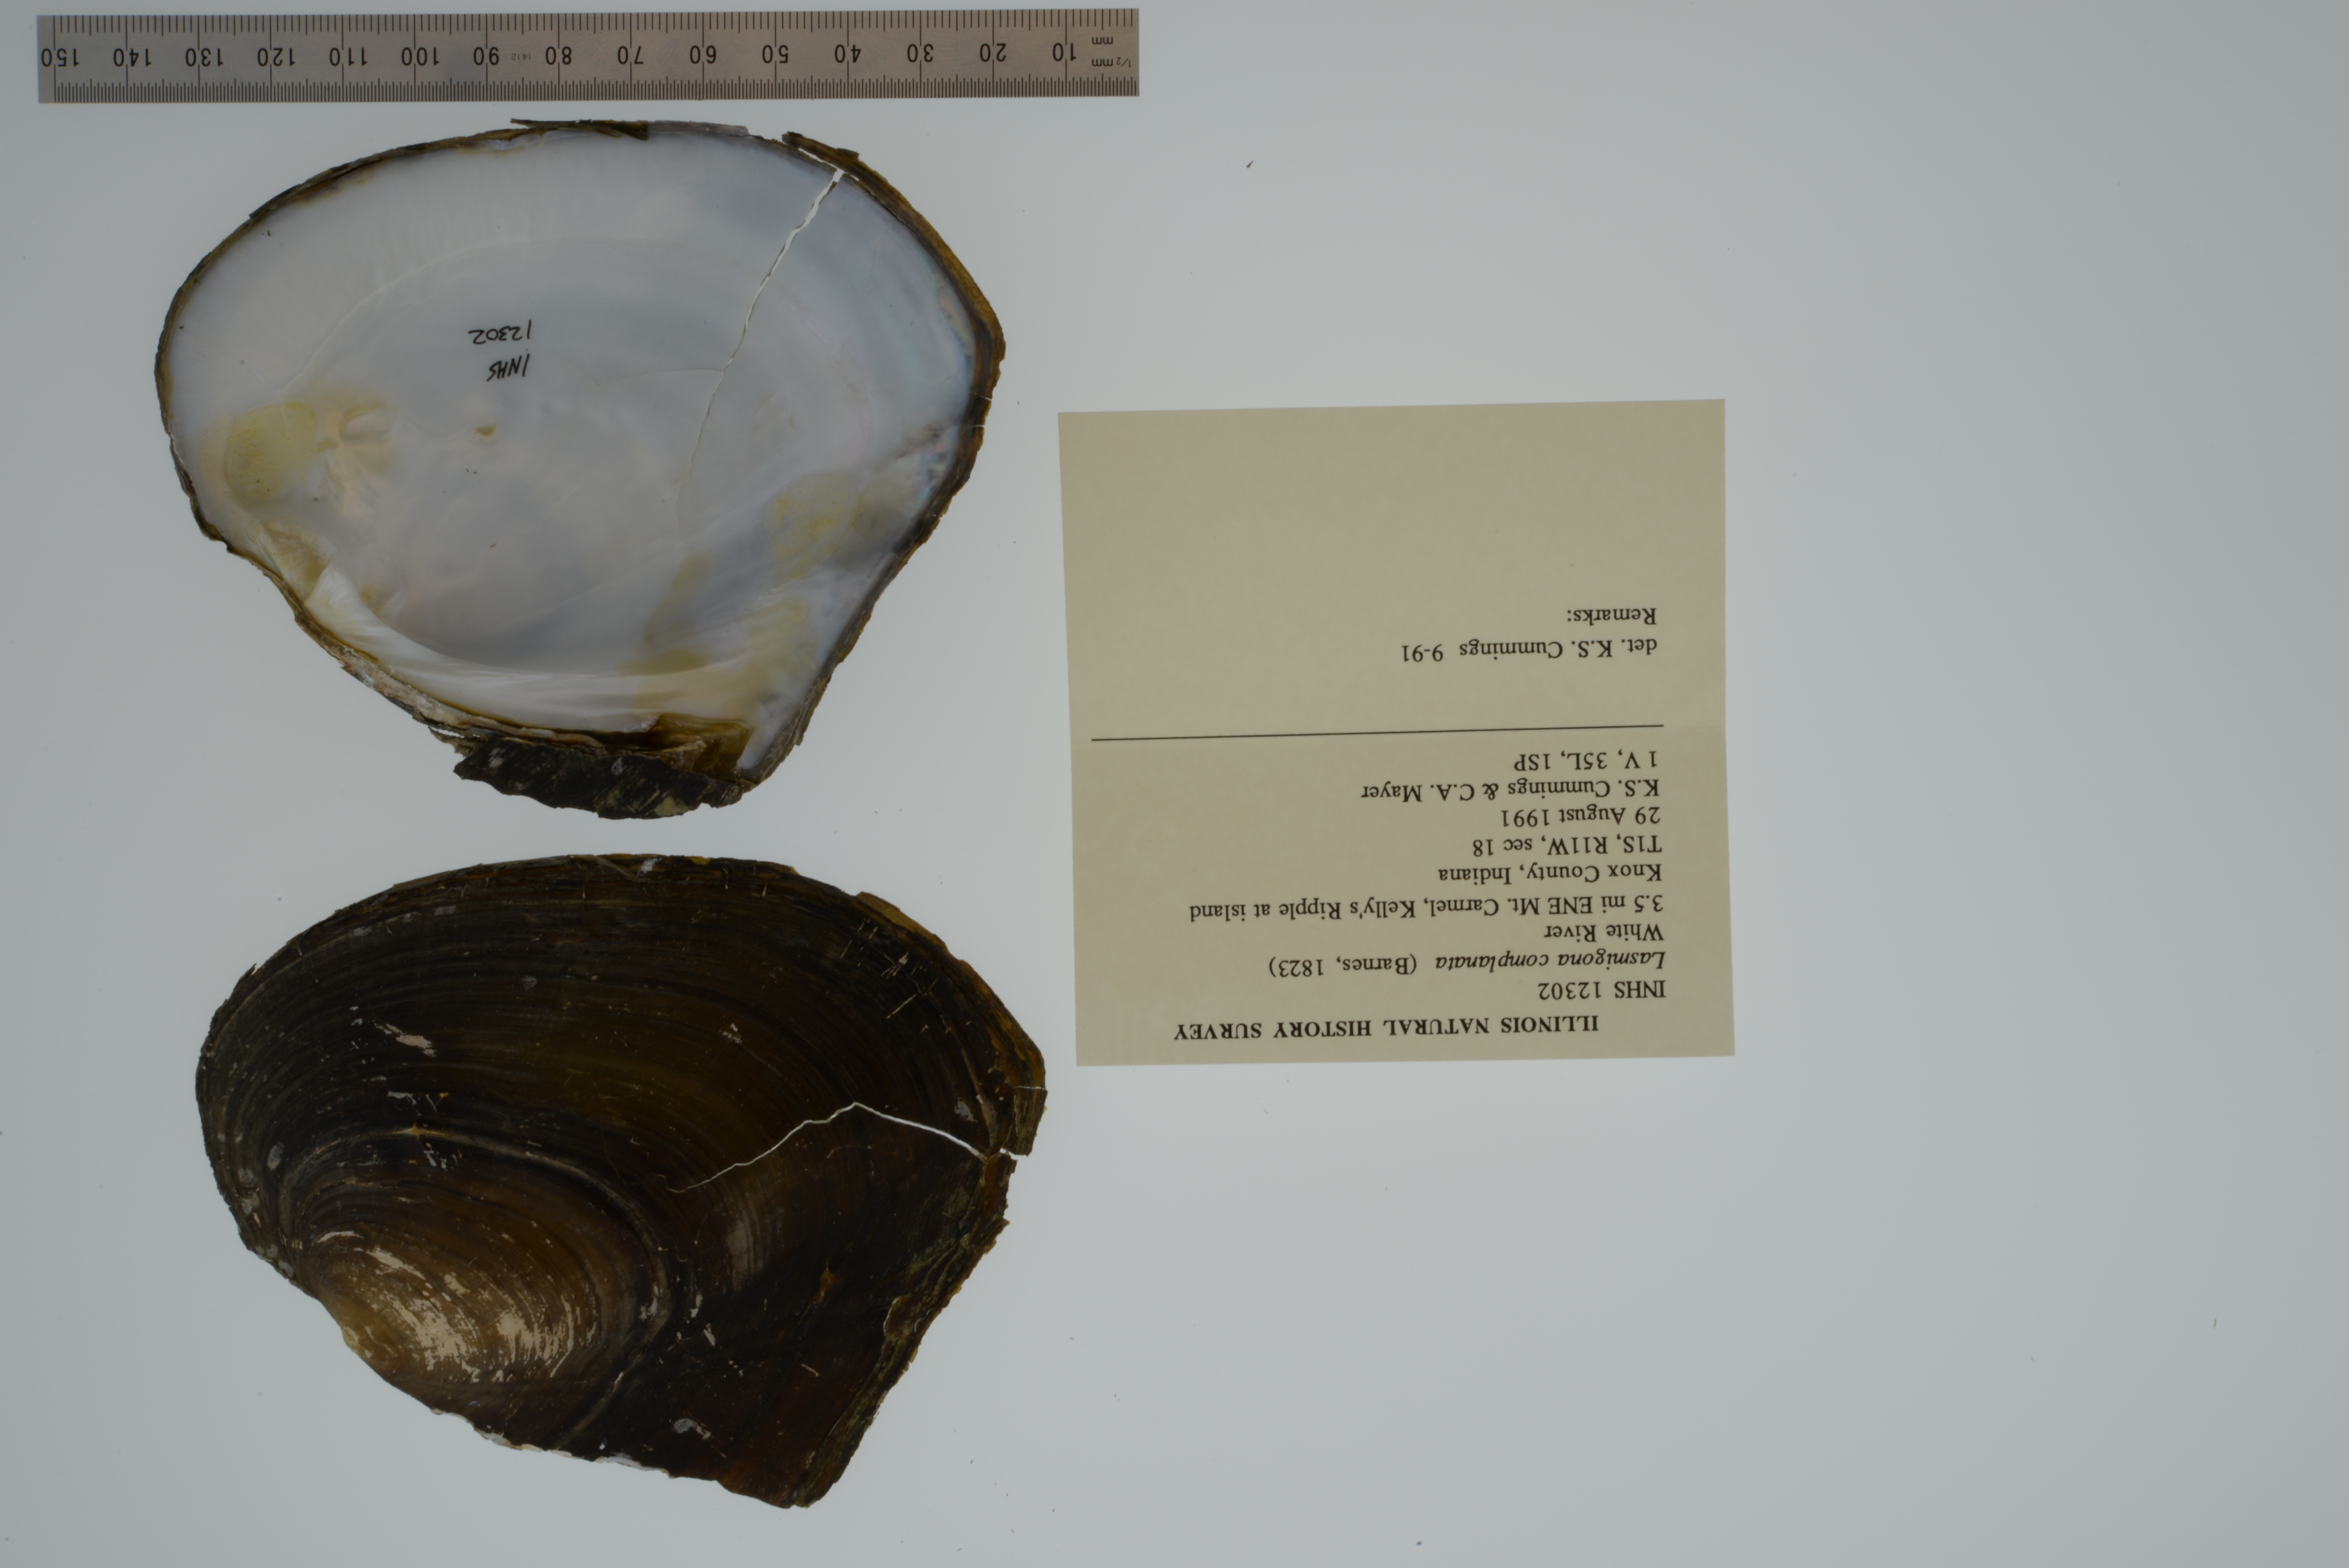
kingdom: Animalia
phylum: Mollusca
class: Bivalvia
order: Unionida
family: Unionidae
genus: Lasmigona
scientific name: Lasmigona complanata
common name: White heelsplitter
